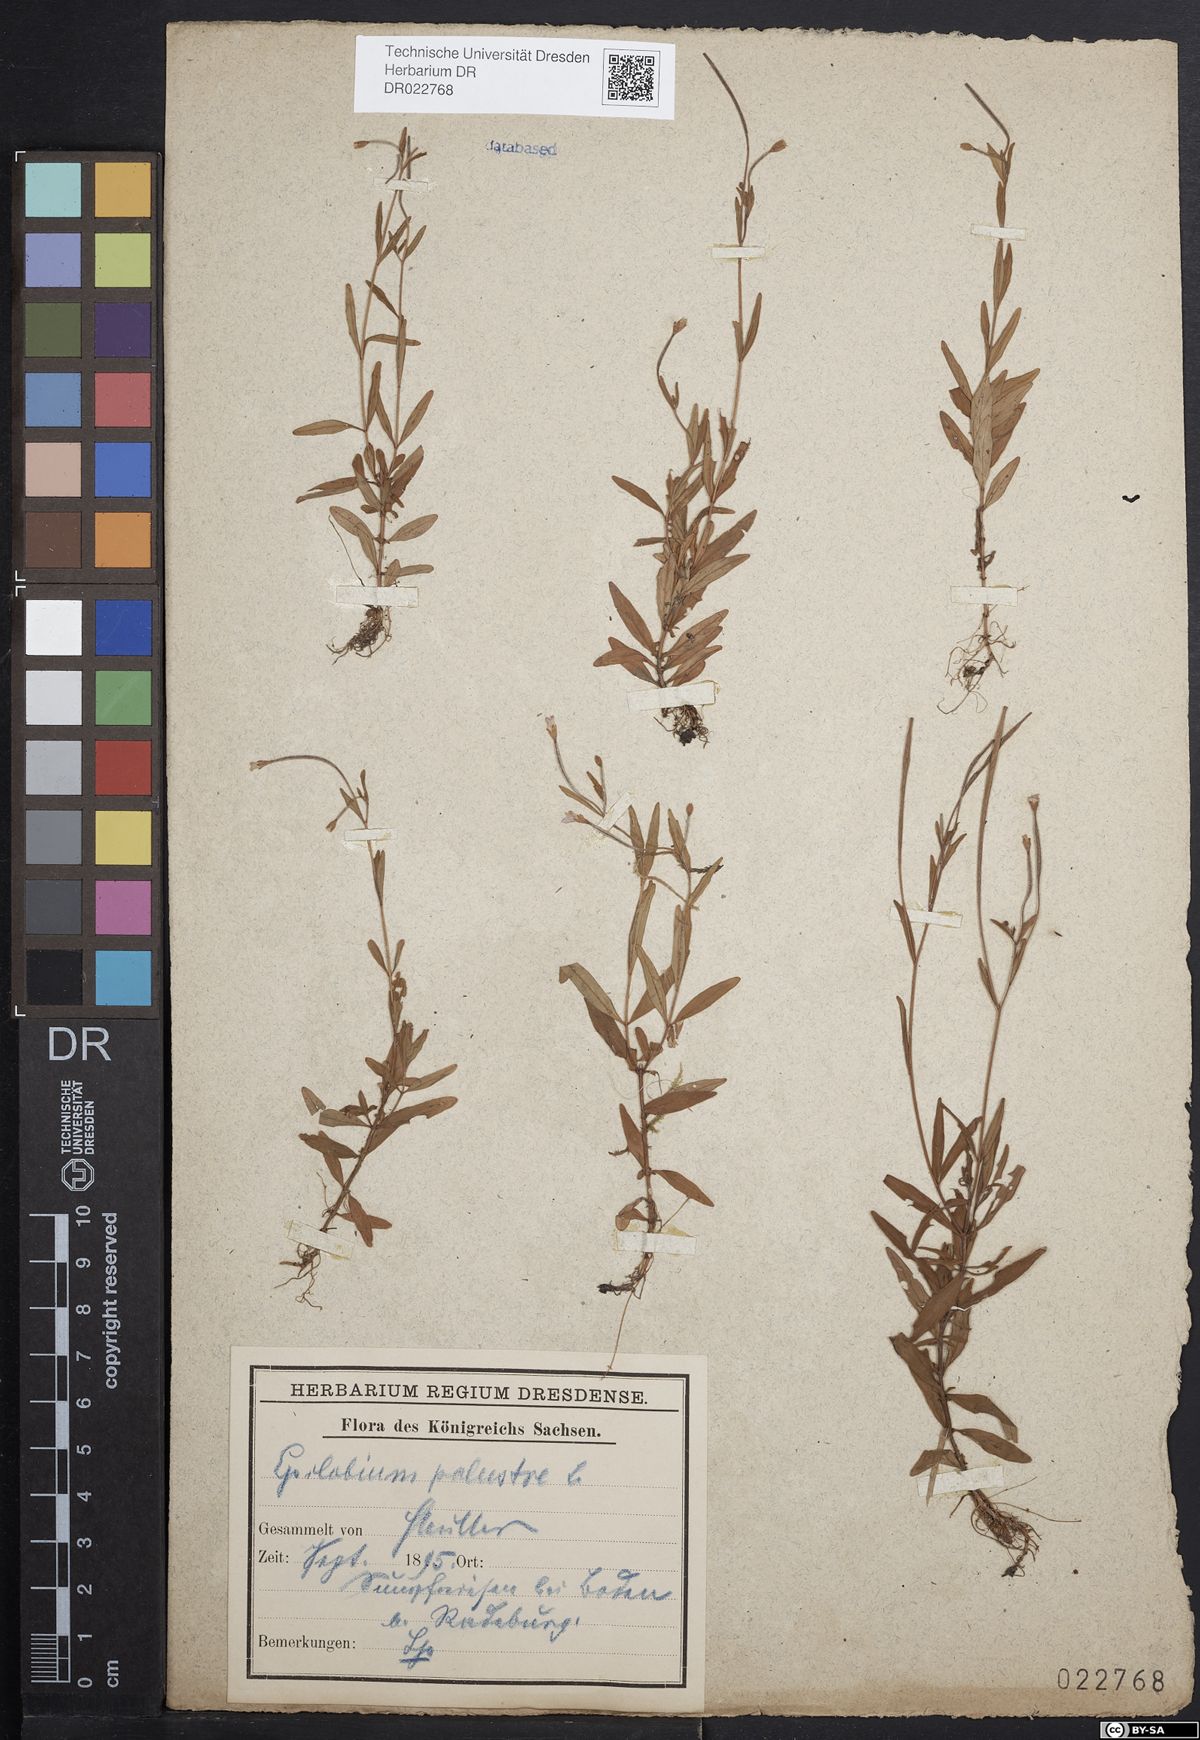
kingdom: Plantae
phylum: Tracheophyta
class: Magnoliopsida
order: Myrtales
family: Onagraceae
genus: Epilobium
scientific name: Epilobium palustre
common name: Marsh willowherb
